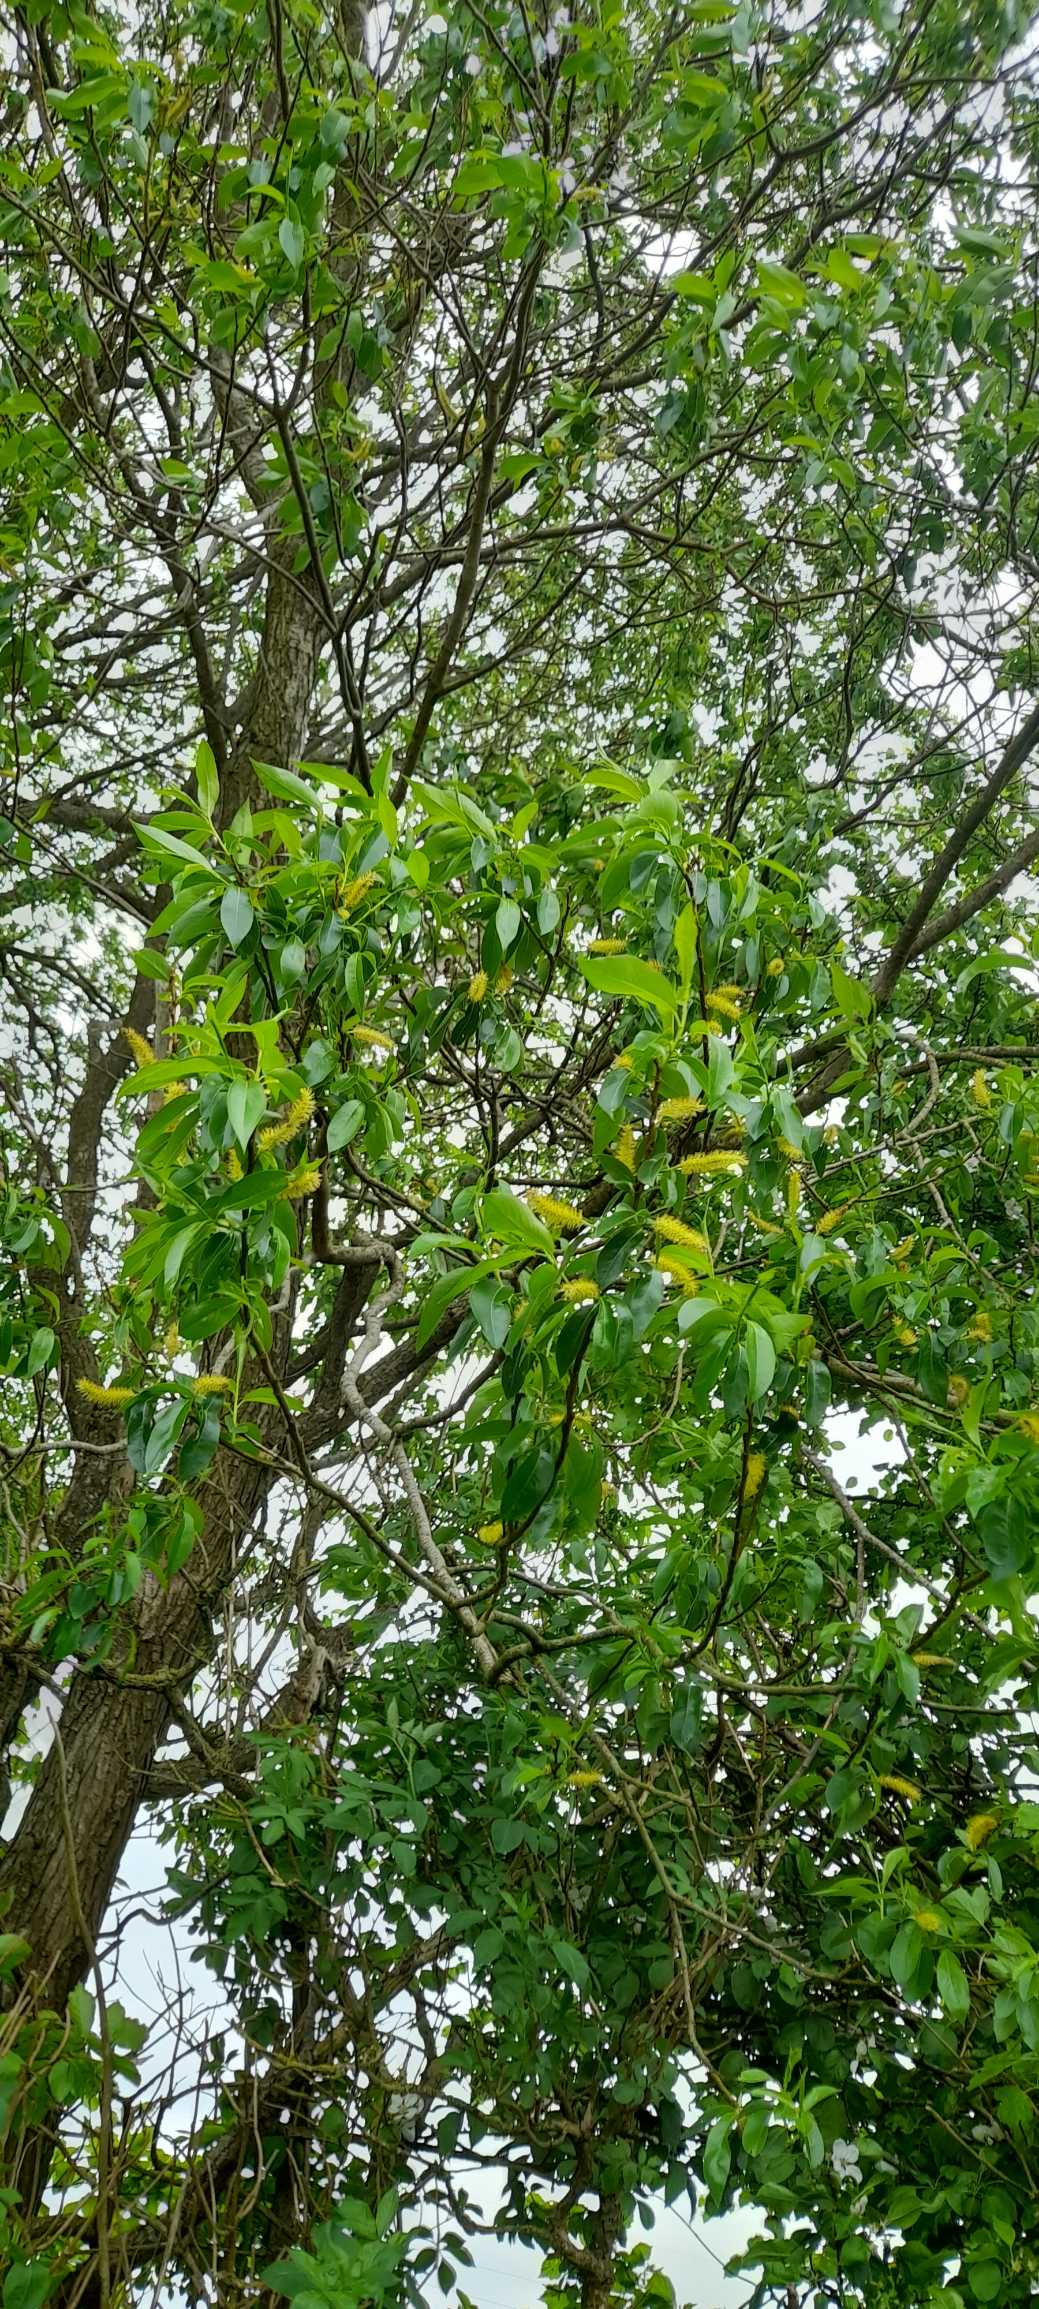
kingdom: Plantae
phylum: Tracheophyta
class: Magnoliopsida
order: Malpighiales
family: Salicaceae
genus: Salix
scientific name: Salix pentandra
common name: Femhannet pil
